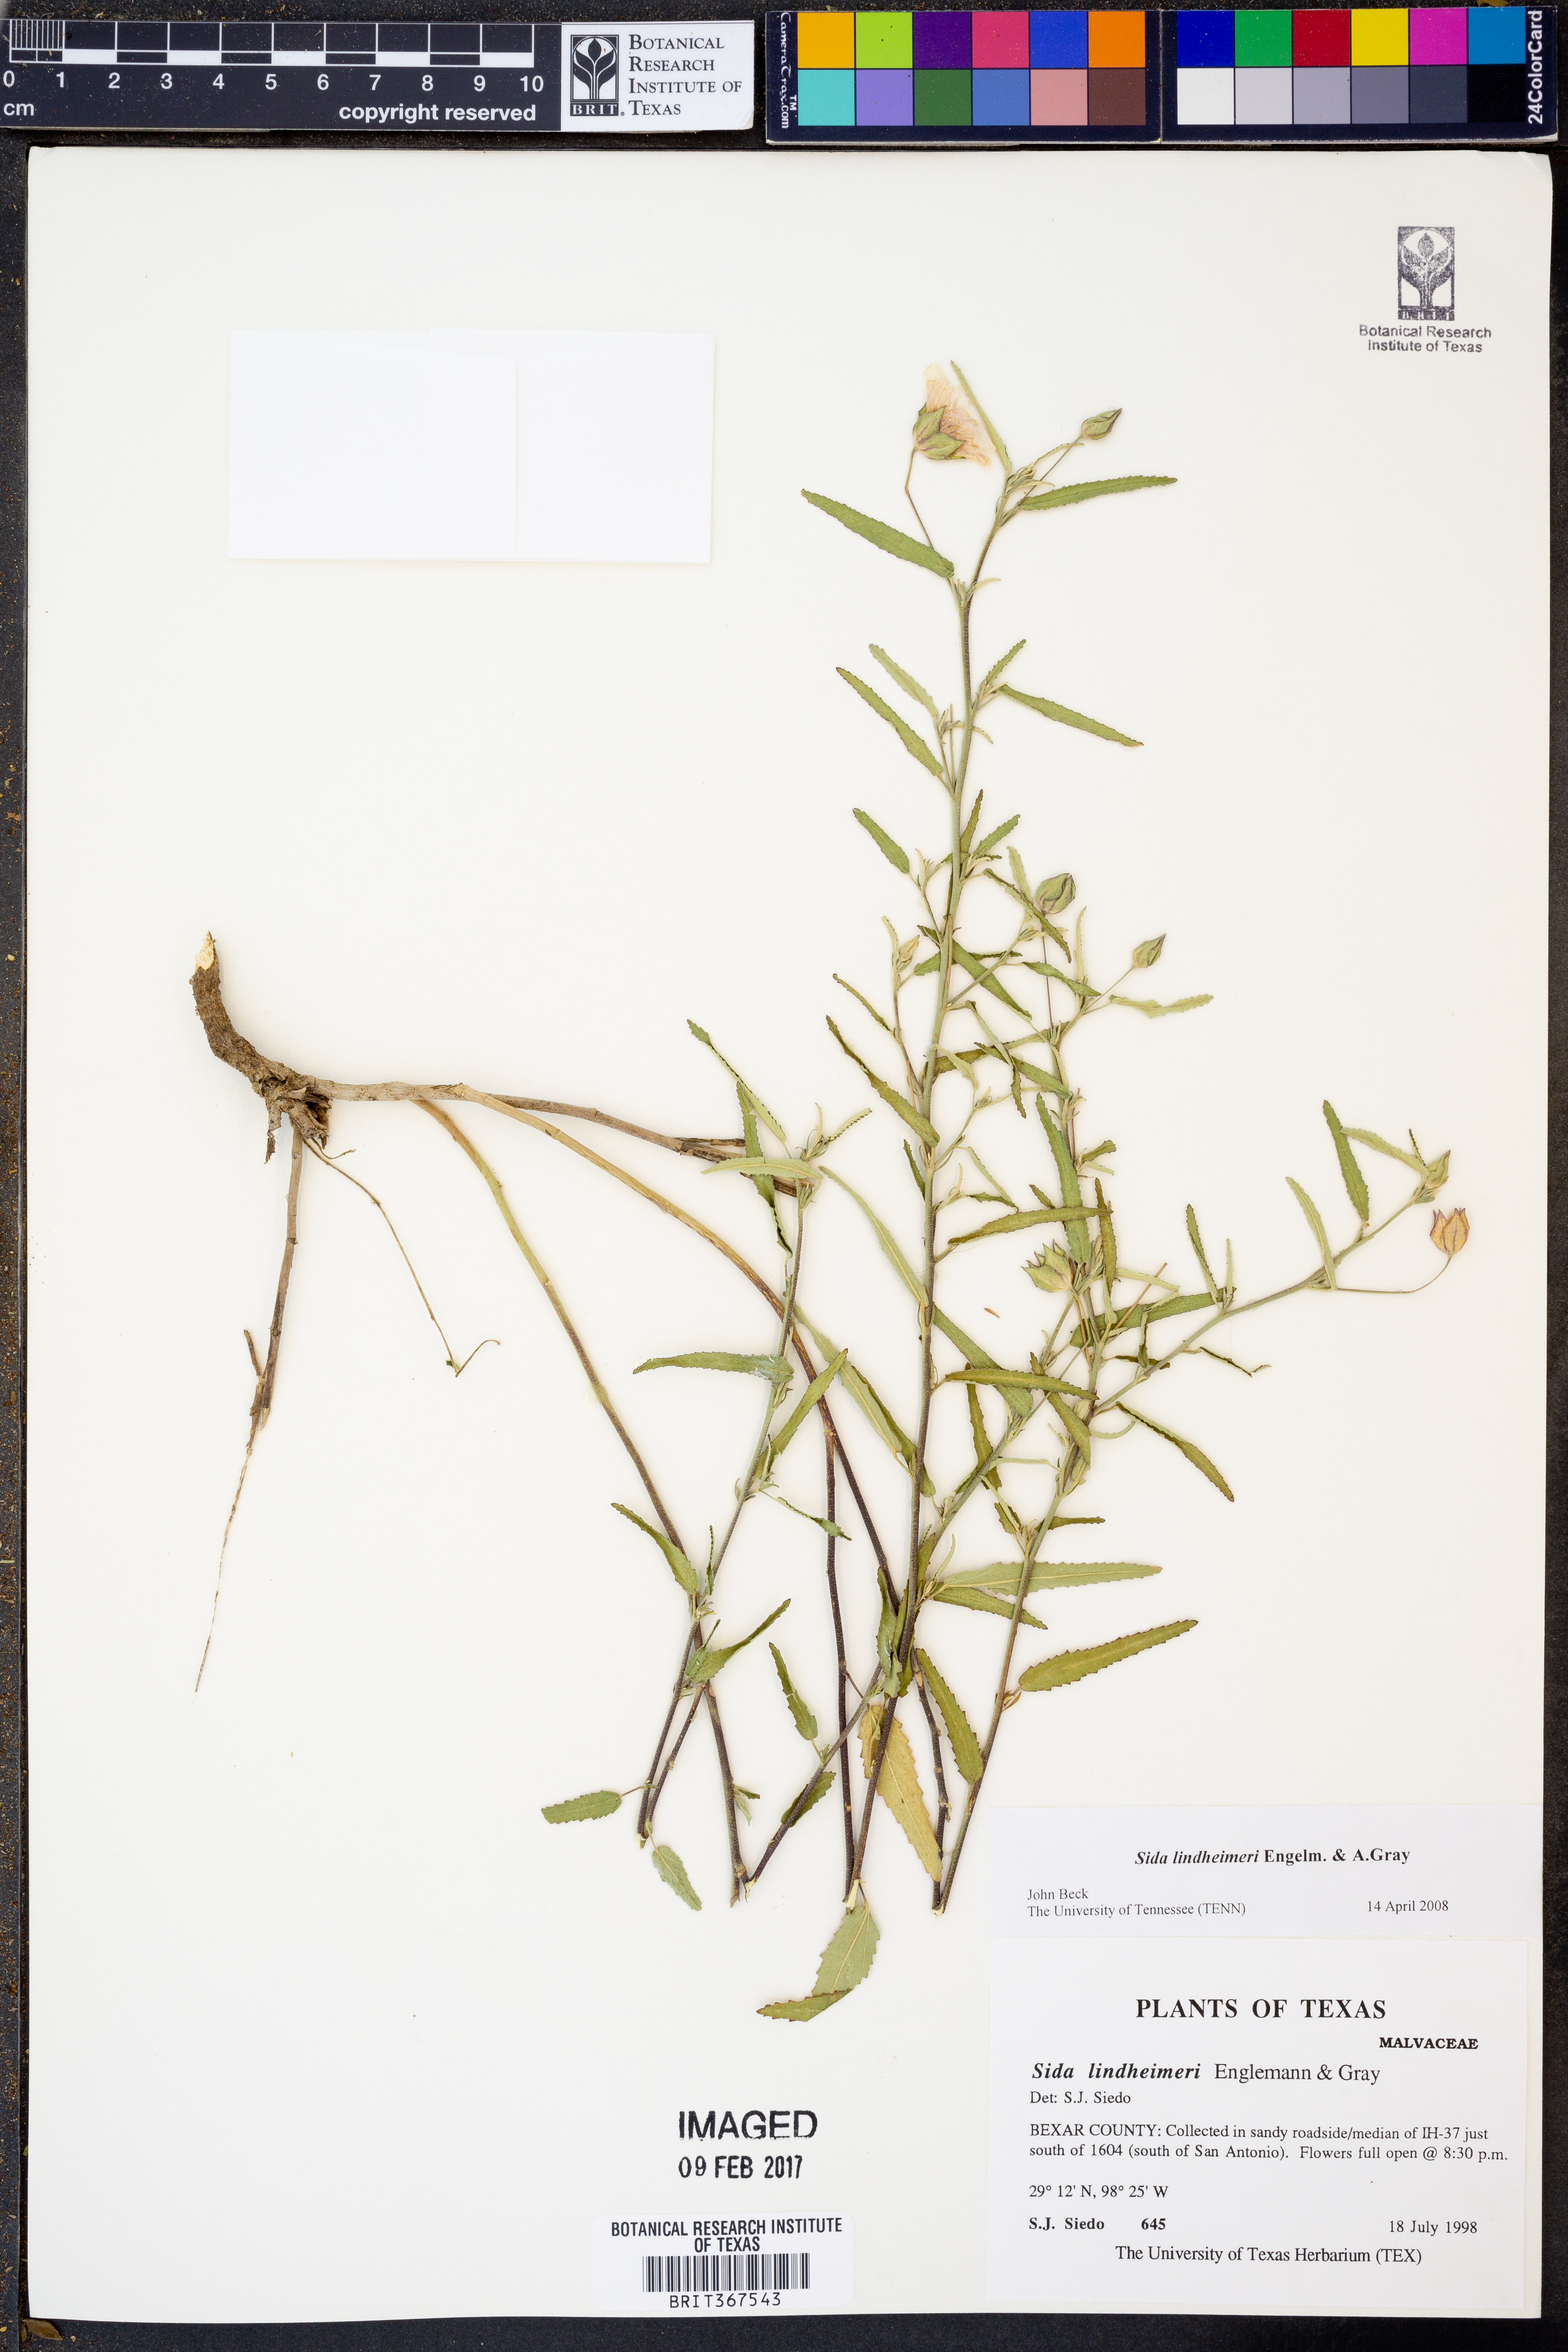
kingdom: Plantae
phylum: Tracheophyta
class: Magnoliopsida
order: Malvales
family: Malvaceae
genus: Sida
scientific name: Sida lindheimeri
